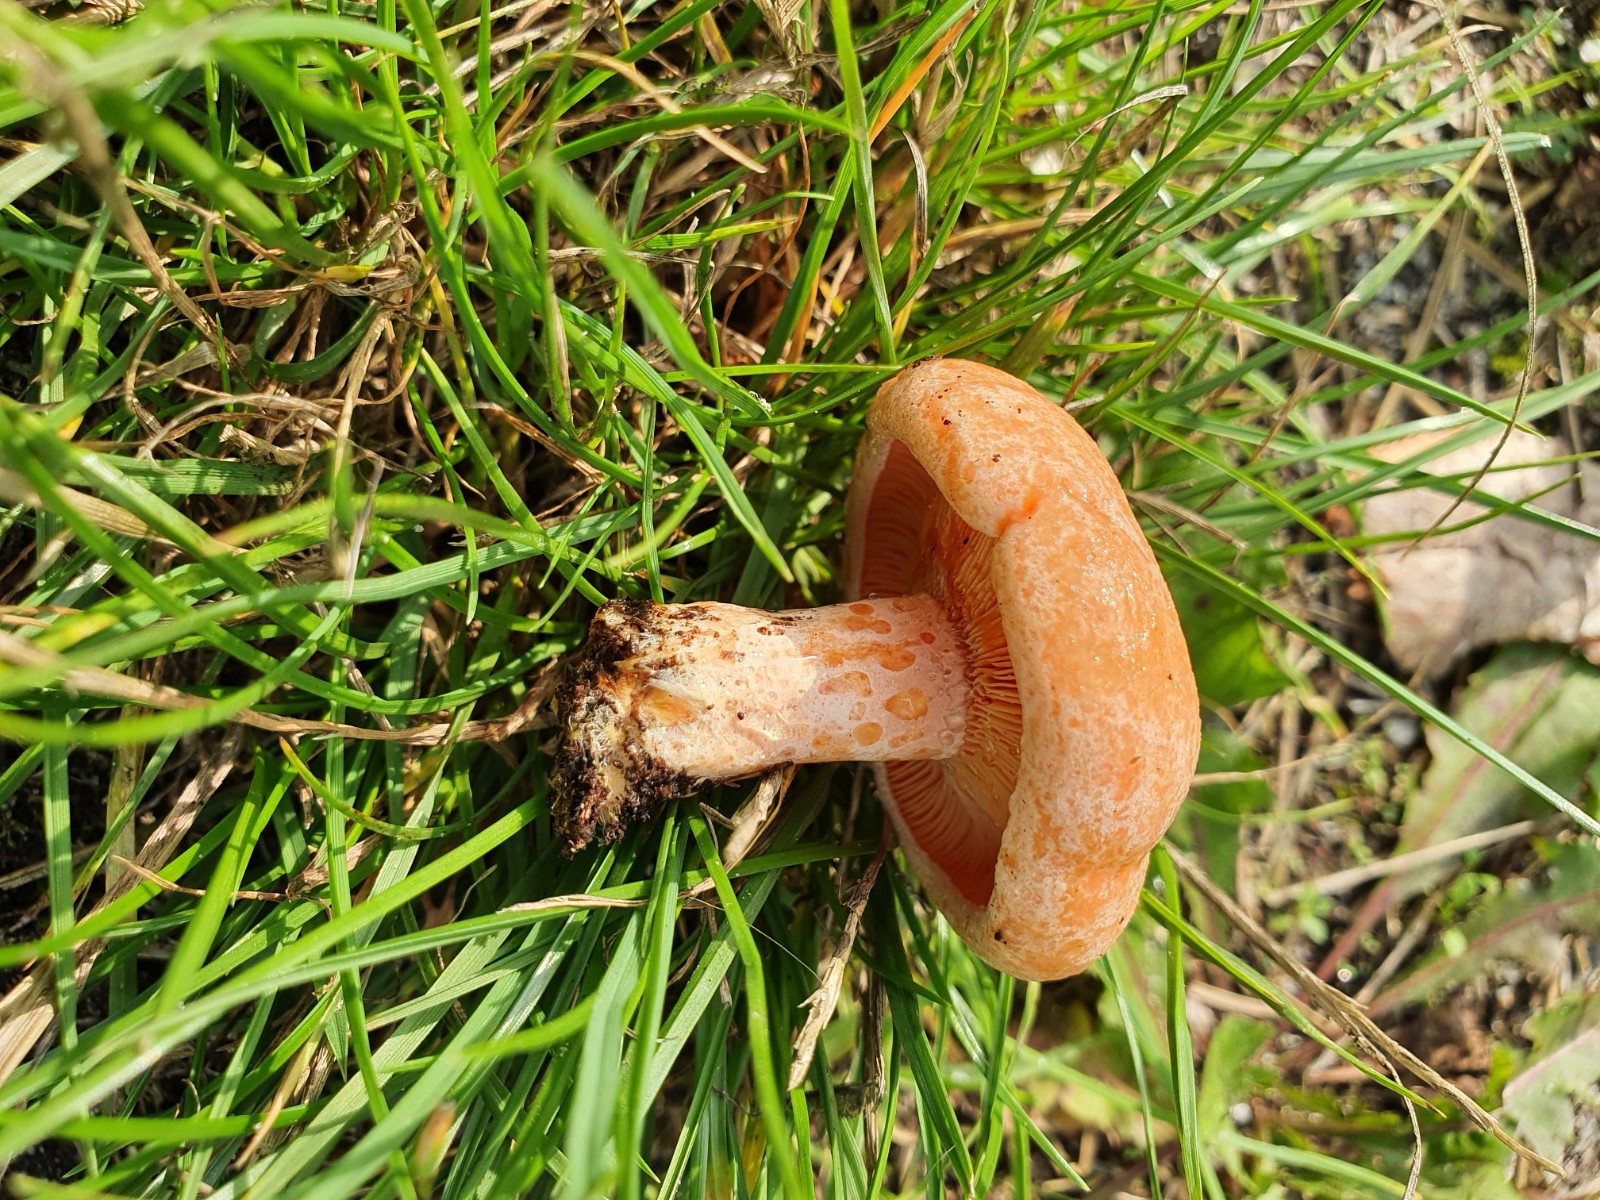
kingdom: Fungi
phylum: Basidiomycota
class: Agaricomycetes
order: Russulales
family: Russulaceae
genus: Lactarius
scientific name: Lactarius deliciosus
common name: velsmagende mælkehat
